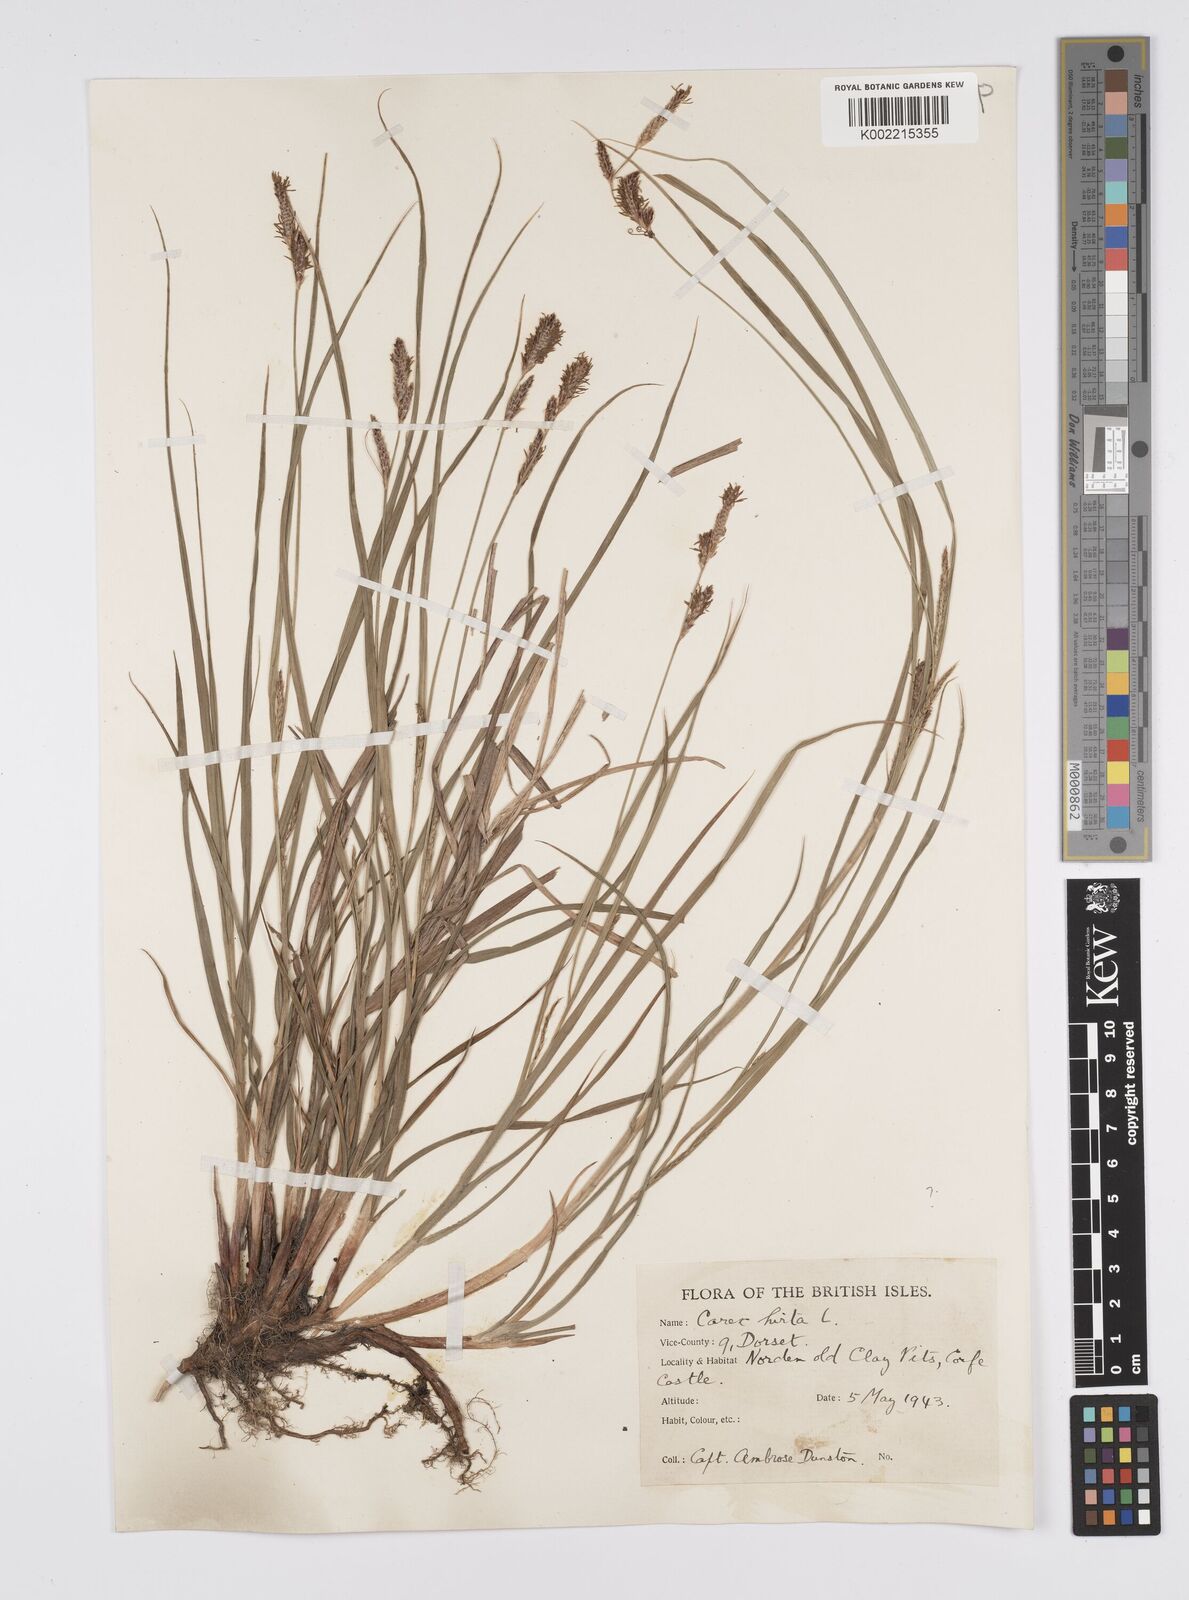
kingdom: Plantae
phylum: Tracheophyta
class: Liliopsida
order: Poales
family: Cyperaceae
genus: Carex
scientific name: Carex hirta
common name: Hairy sedge
